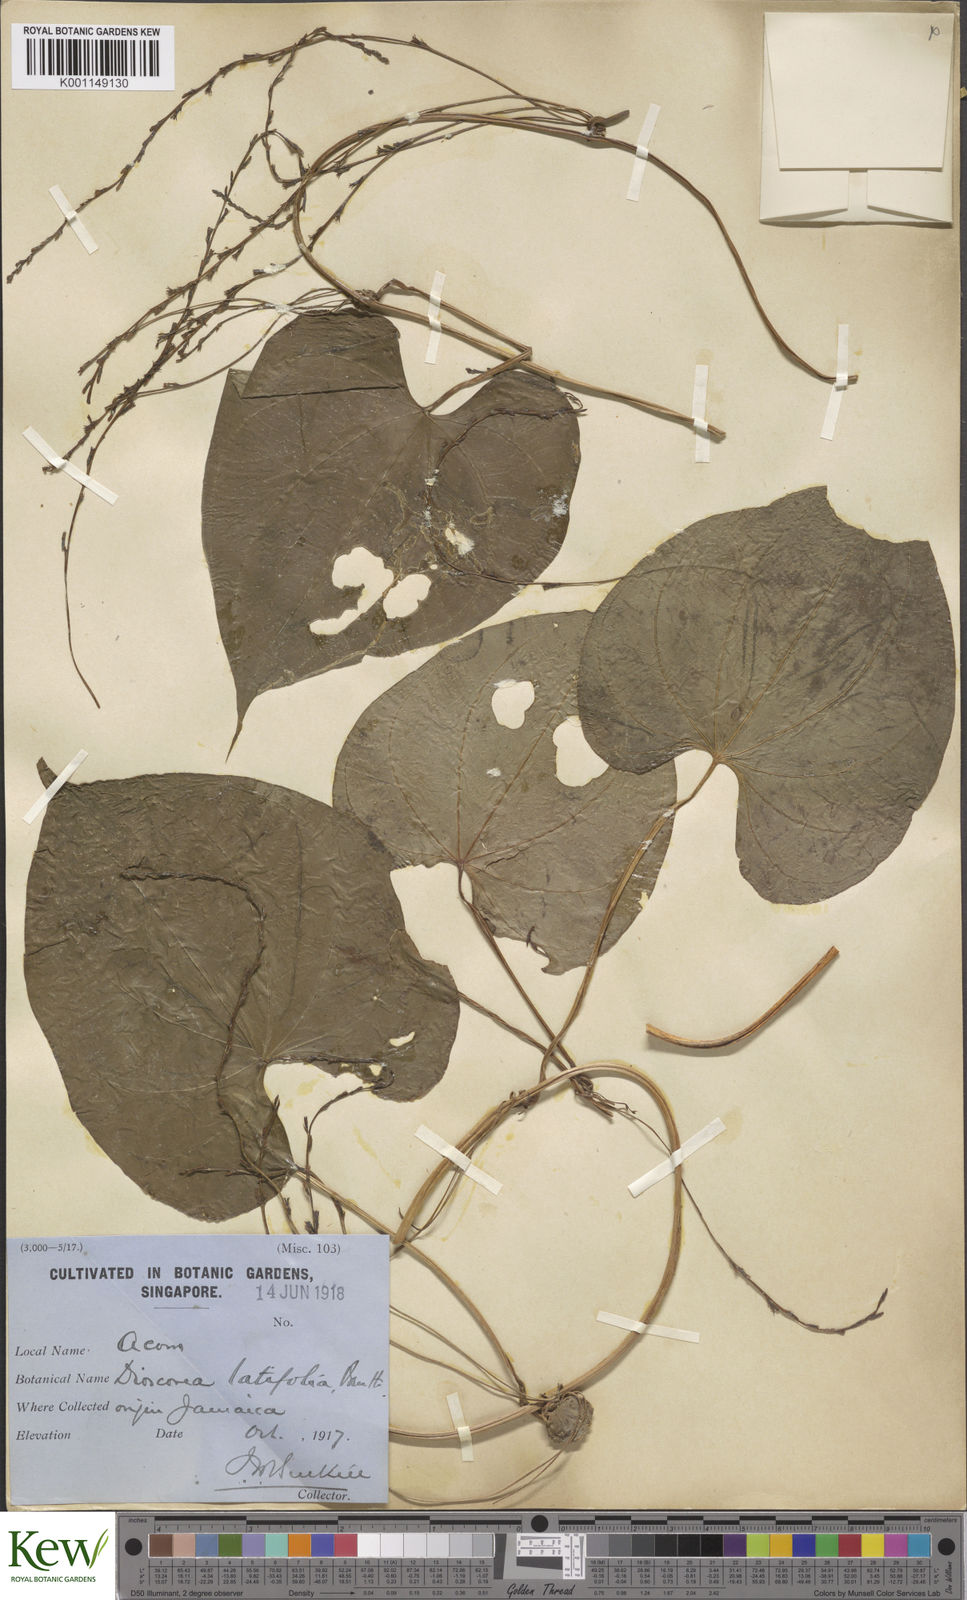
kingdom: Plantae
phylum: Tracheophyta
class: Liliopsida
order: Dioscoreales
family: Dioscoreaceae
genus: Dioscorea
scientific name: Dioscorea bulbifera
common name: Air yam
